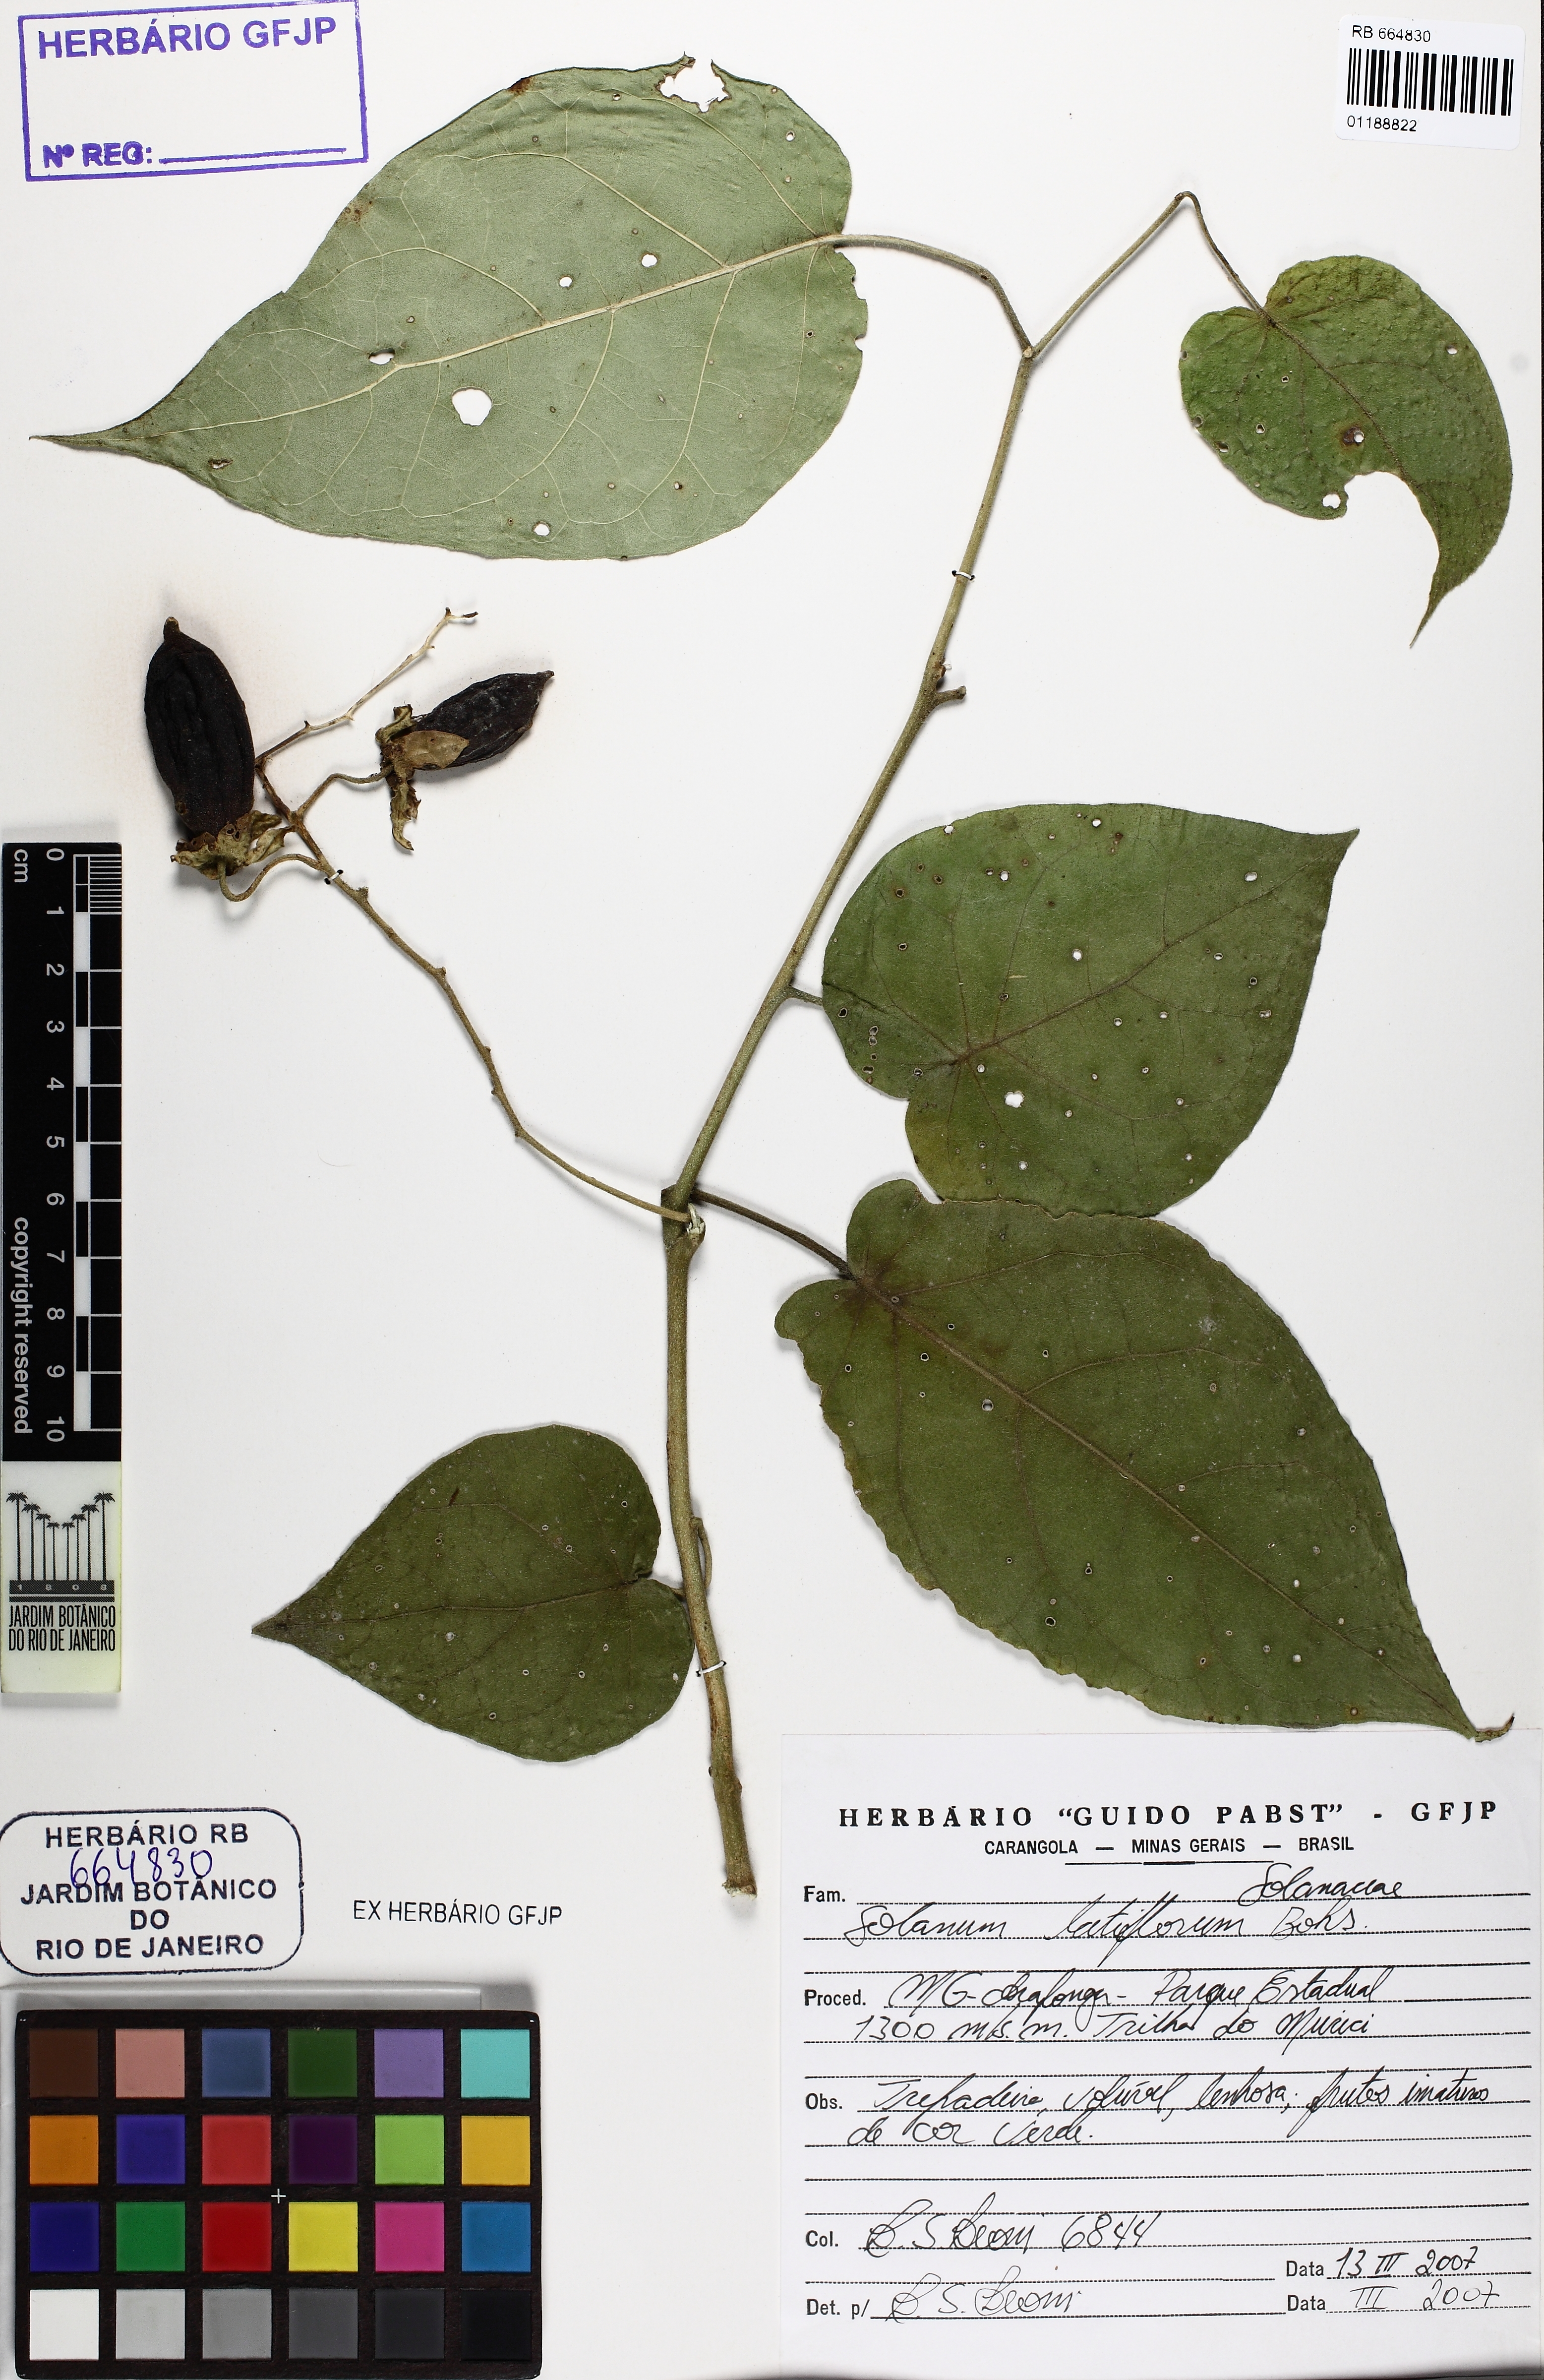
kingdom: Plantae
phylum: Tracheophyta
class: Magnoliopsida
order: Solanales
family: Solanaceae
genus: Solanum
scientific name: Solanum latiflorum
